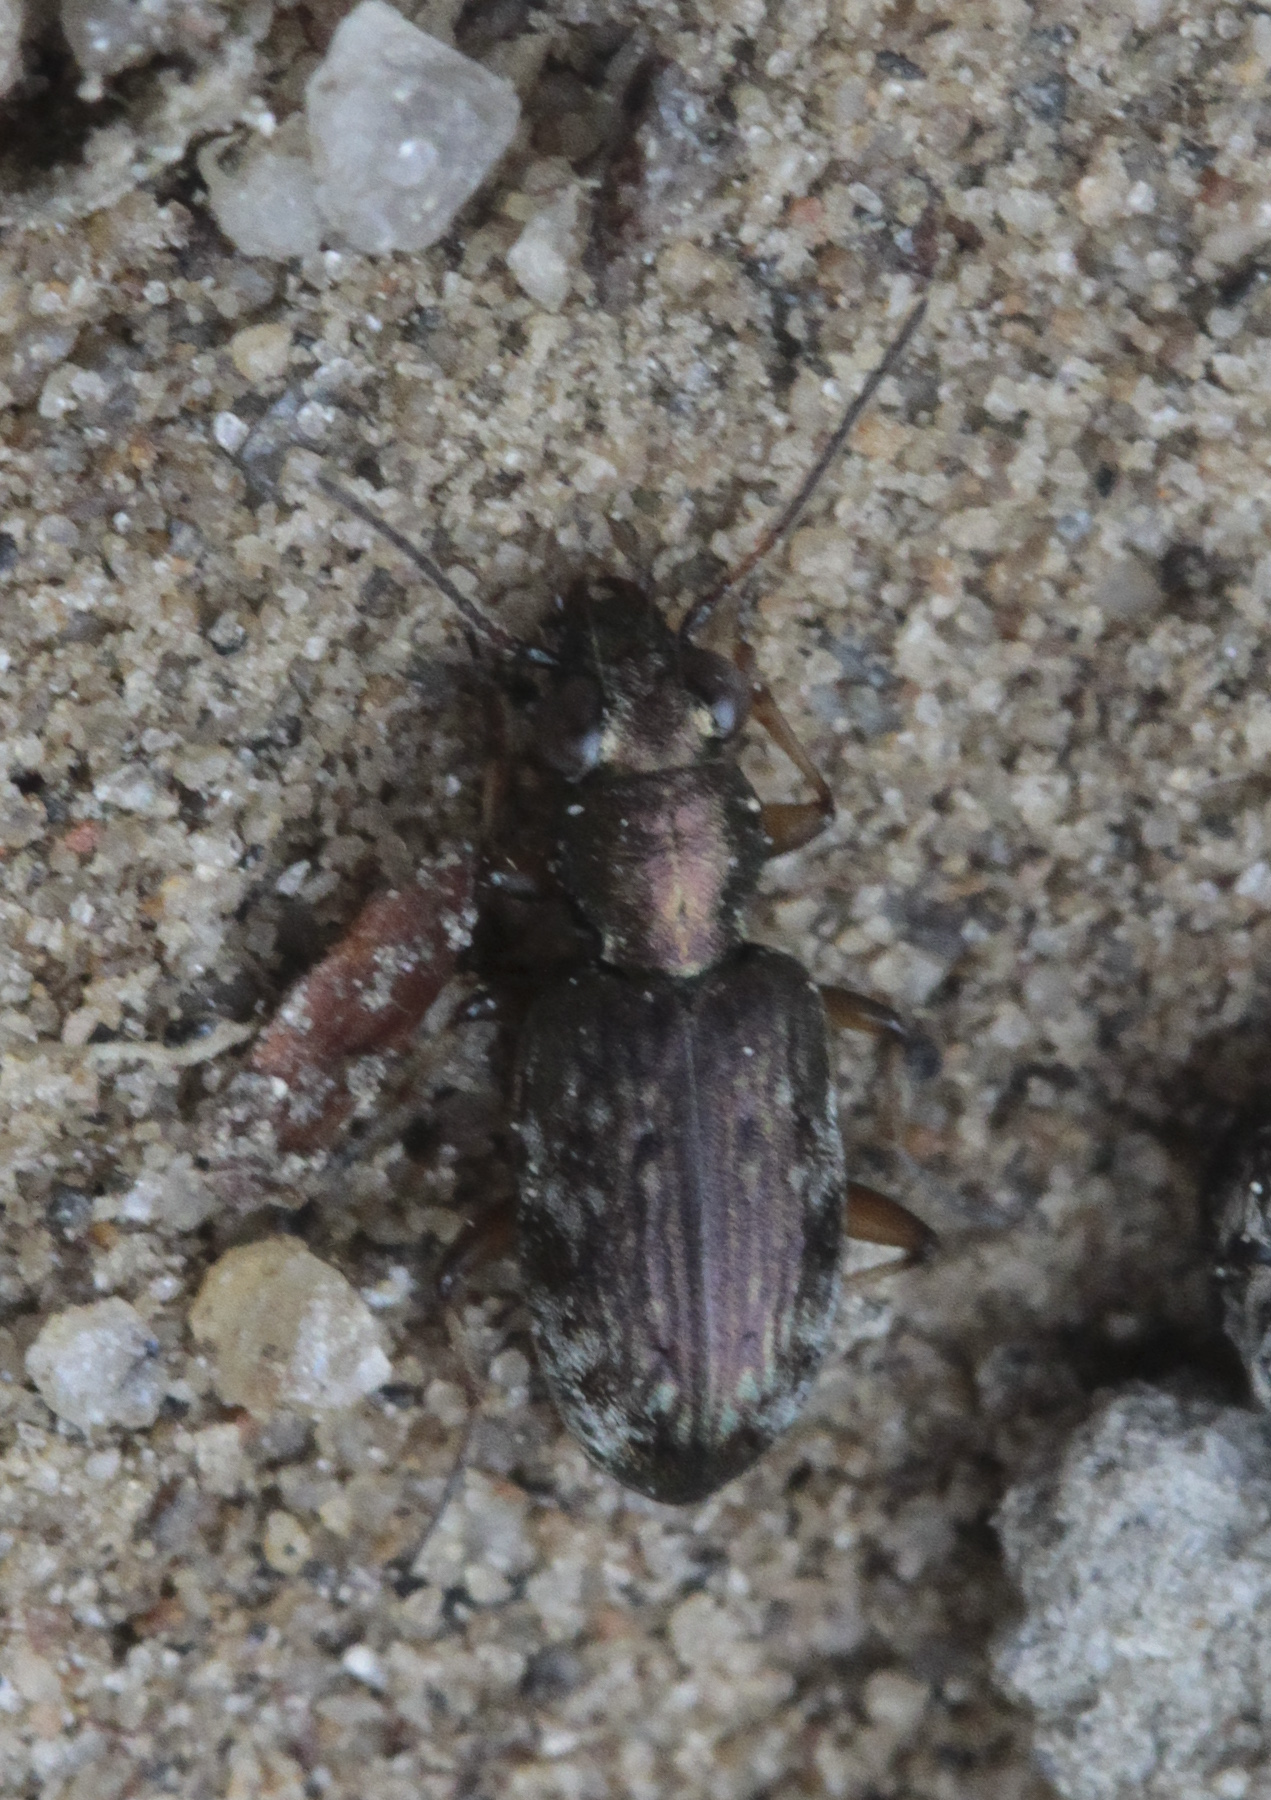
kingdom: Animalia
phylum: Arthropoda
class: Insecta
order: Coleoptera
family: Carabidae
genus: Asaphidion
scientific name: Asaphidion pallipes
